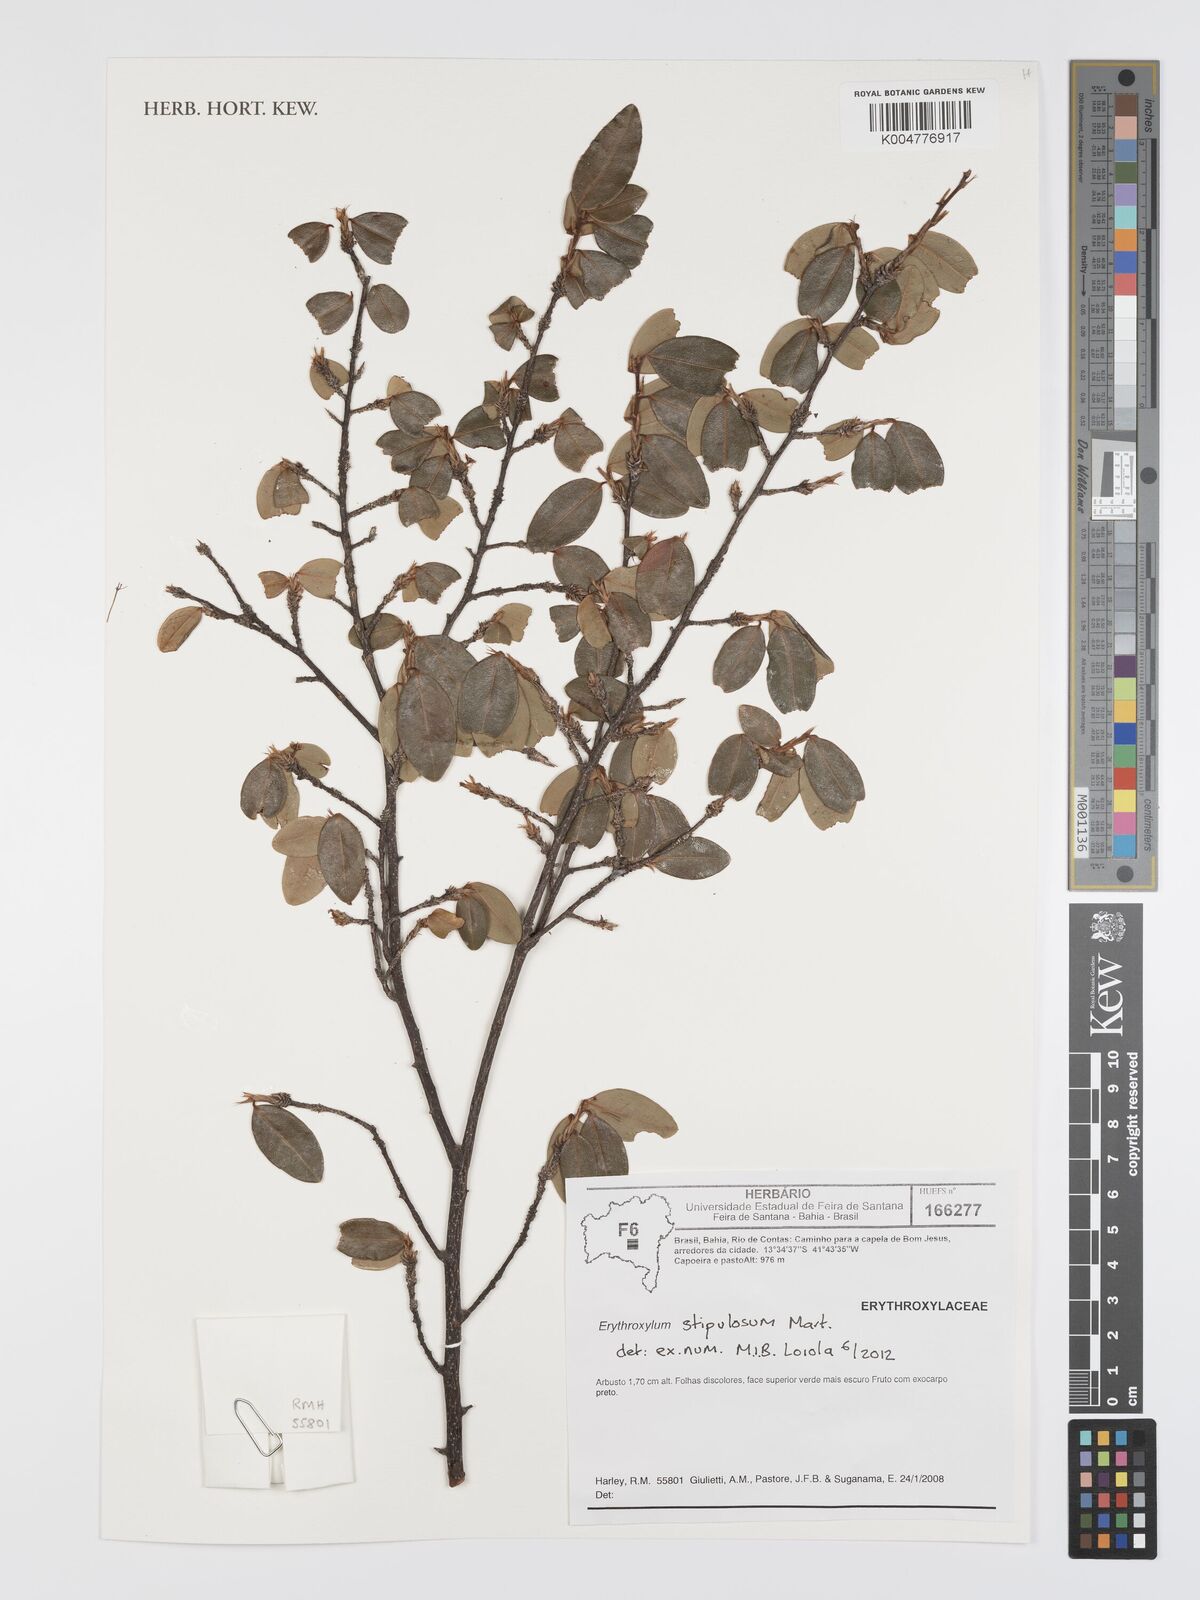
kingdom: Plantae
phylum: Tracheophyta
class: Magnoliopsida
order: Malpighiales
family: Erythroxylaceae
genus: Erythroxylum
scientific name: Erythroxylum stipulosum
